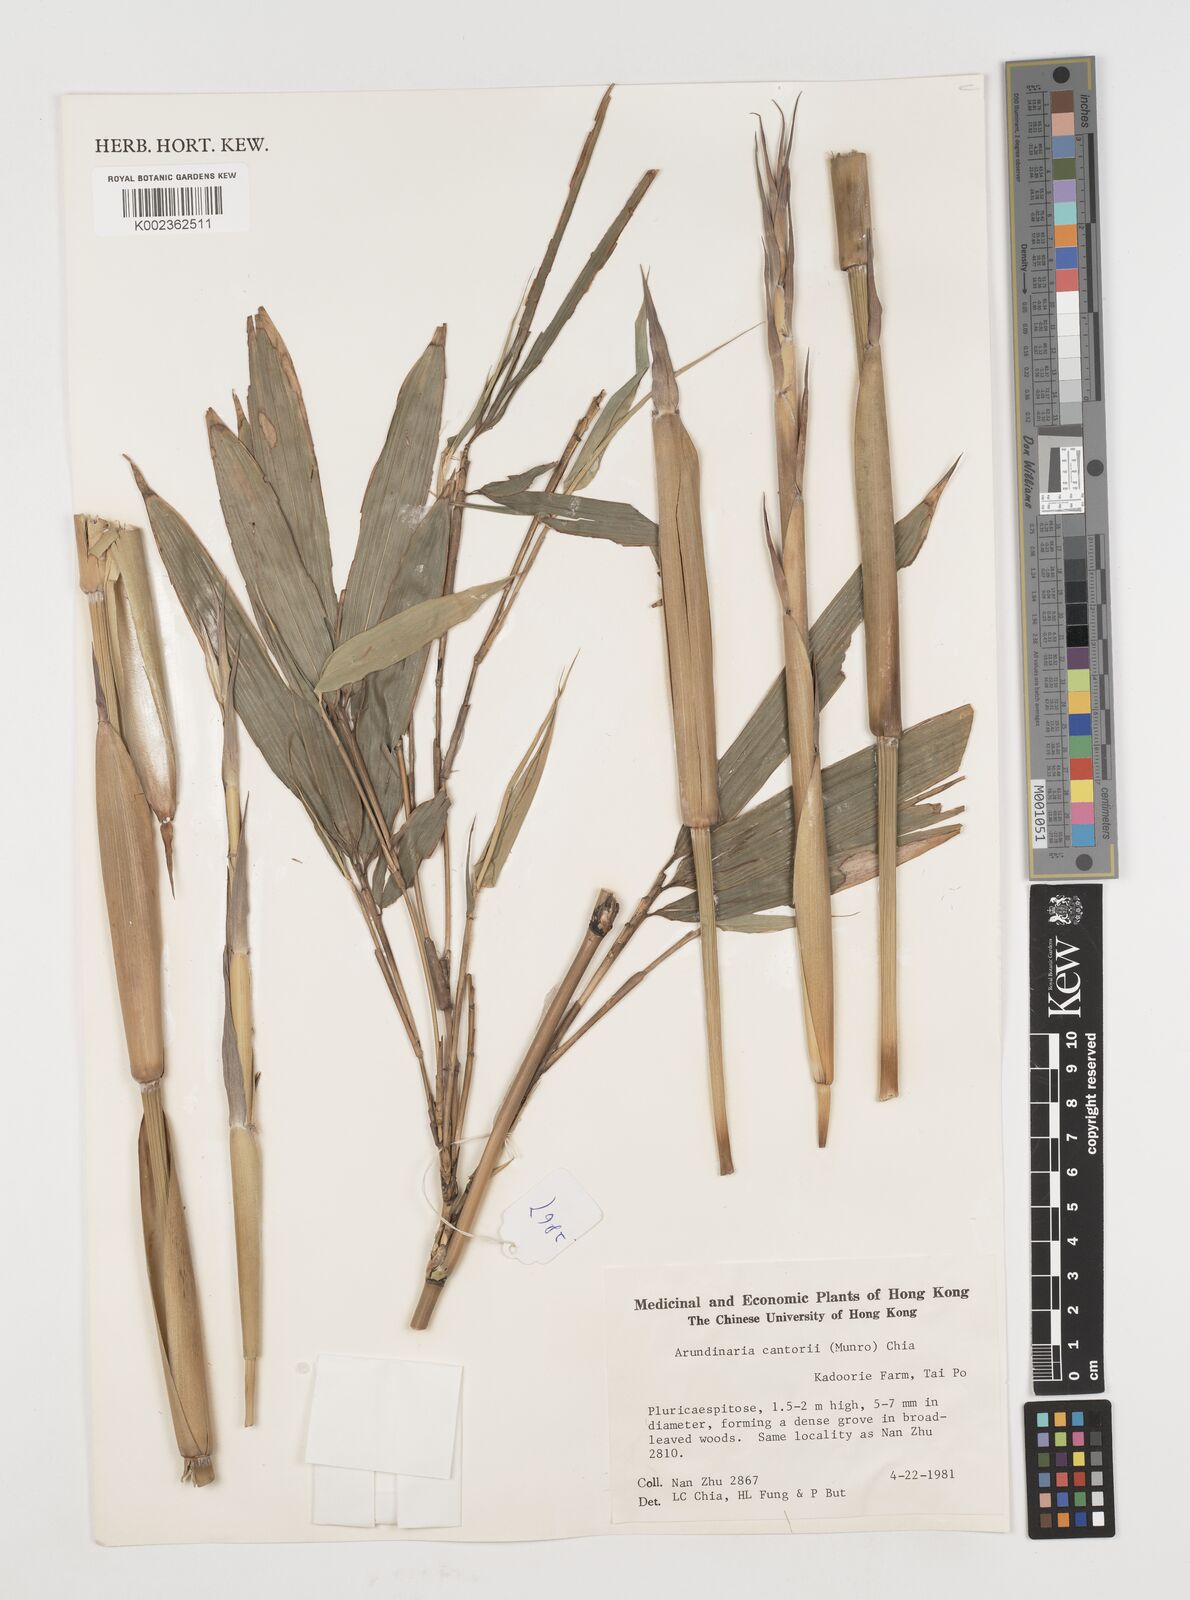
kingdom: Plantae
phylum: Tracheophyta
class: Liliopsida
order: Poales
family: Poaceae
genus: Pseudosasa
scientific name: Pseudosasa cantorii
